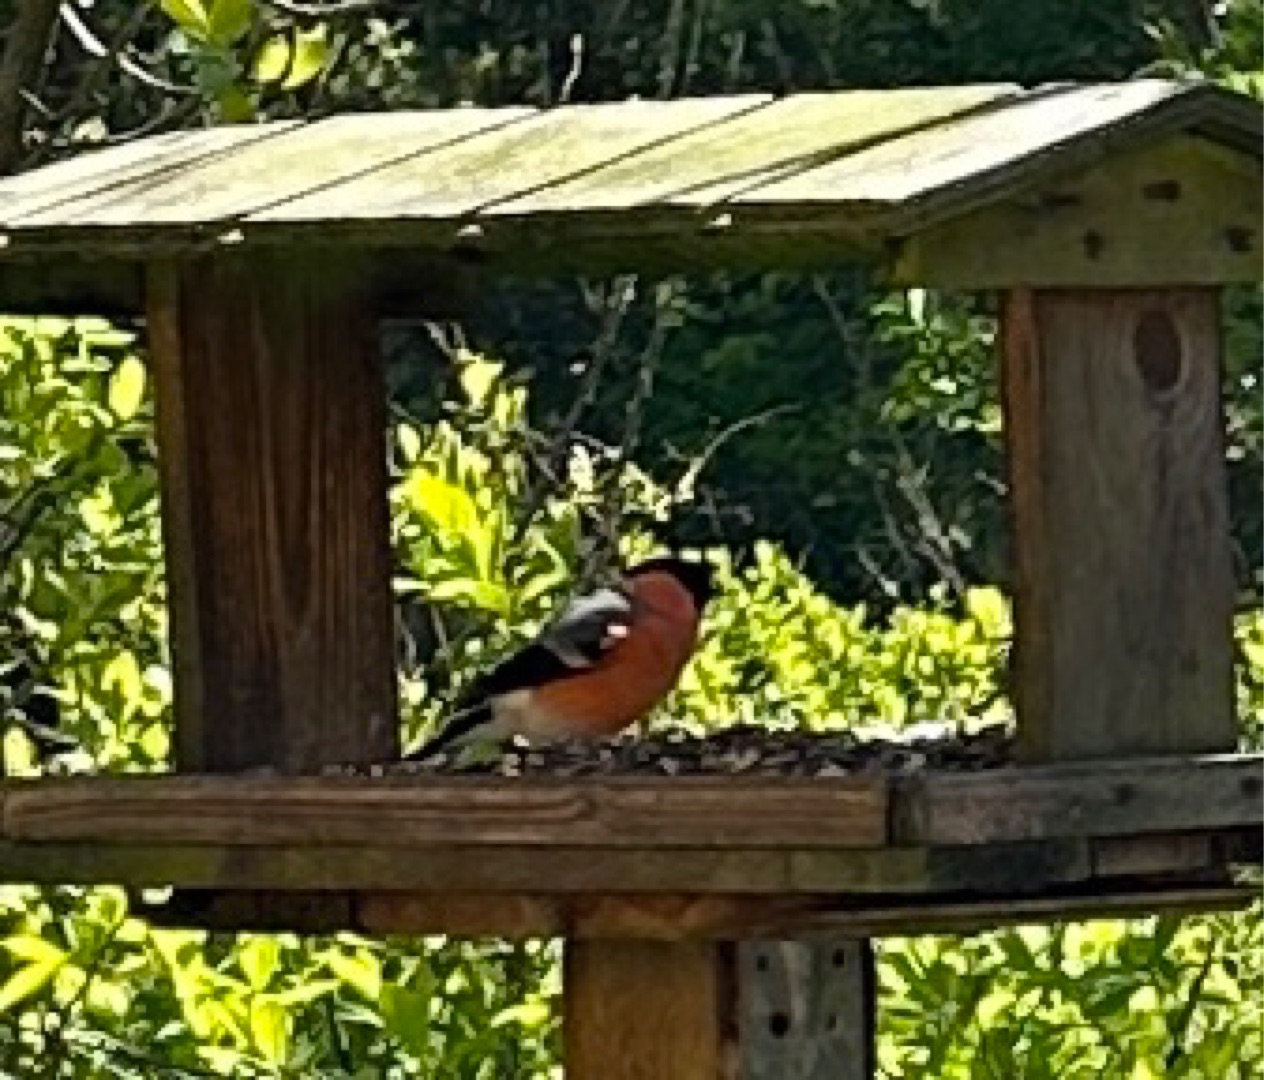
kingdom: Animalia
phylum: Chordata
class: Aves
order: Passeriformes
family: Fringillidae
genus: Pyrrhula
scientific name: Pyrrhula pyrrhula
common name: Dompap
